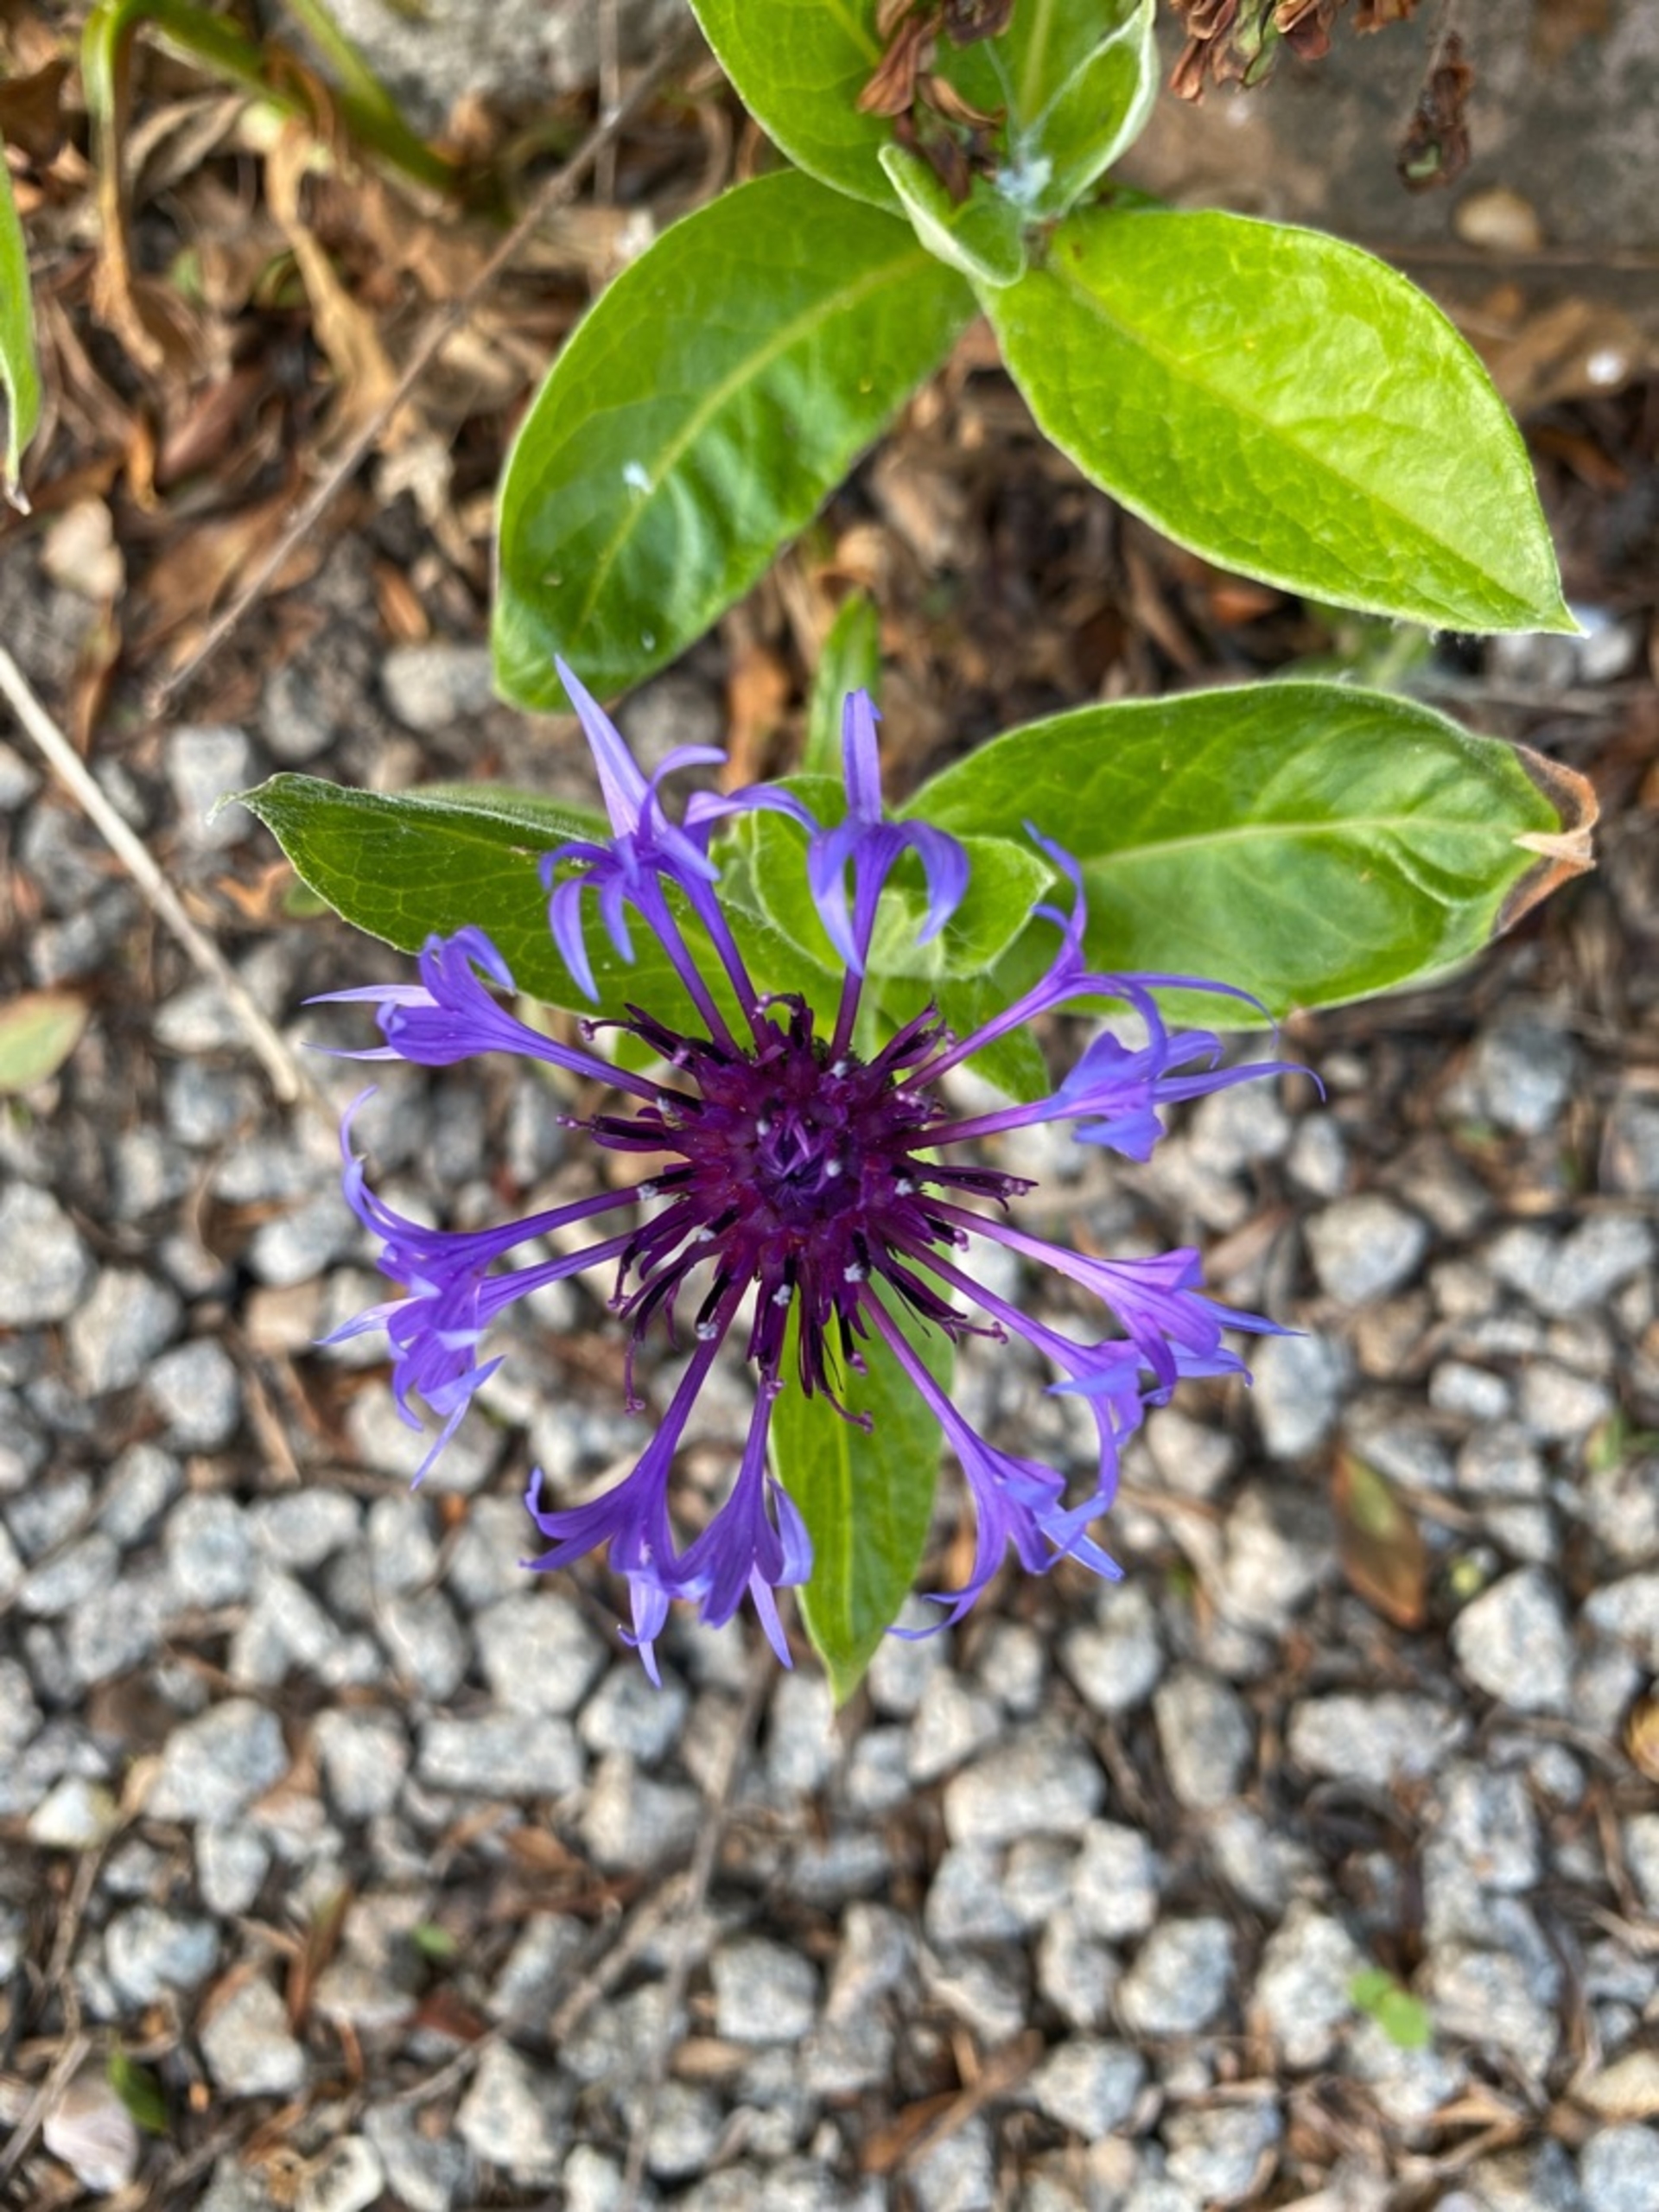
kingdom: Plantae
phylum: Tracheophyta
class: Magnoliopsida
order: Asterales
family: Asteraceae
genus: Centaurea
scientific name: Centaurea montana
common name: Bjerg-knopurt
